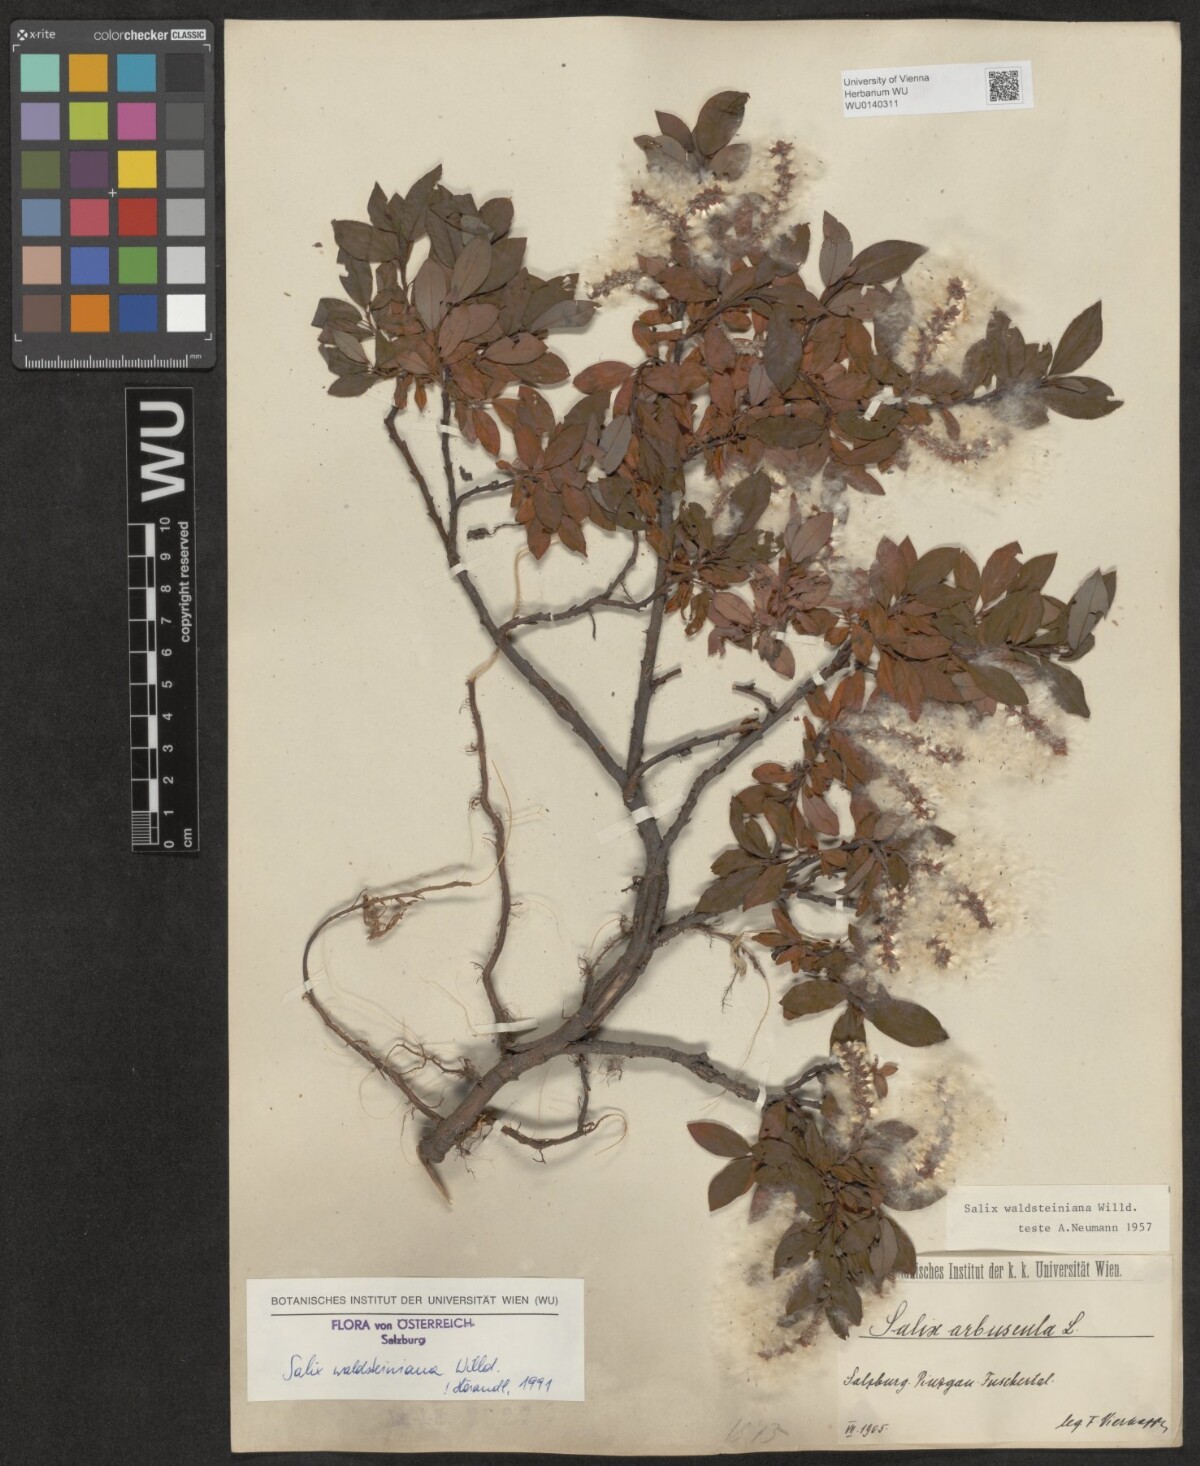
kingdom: Plantae
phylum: Tracheophyta
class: Magnoliopsida
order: Malpighiales
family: Salicaceae
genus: Salix
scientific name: Salix waldsteiniana
